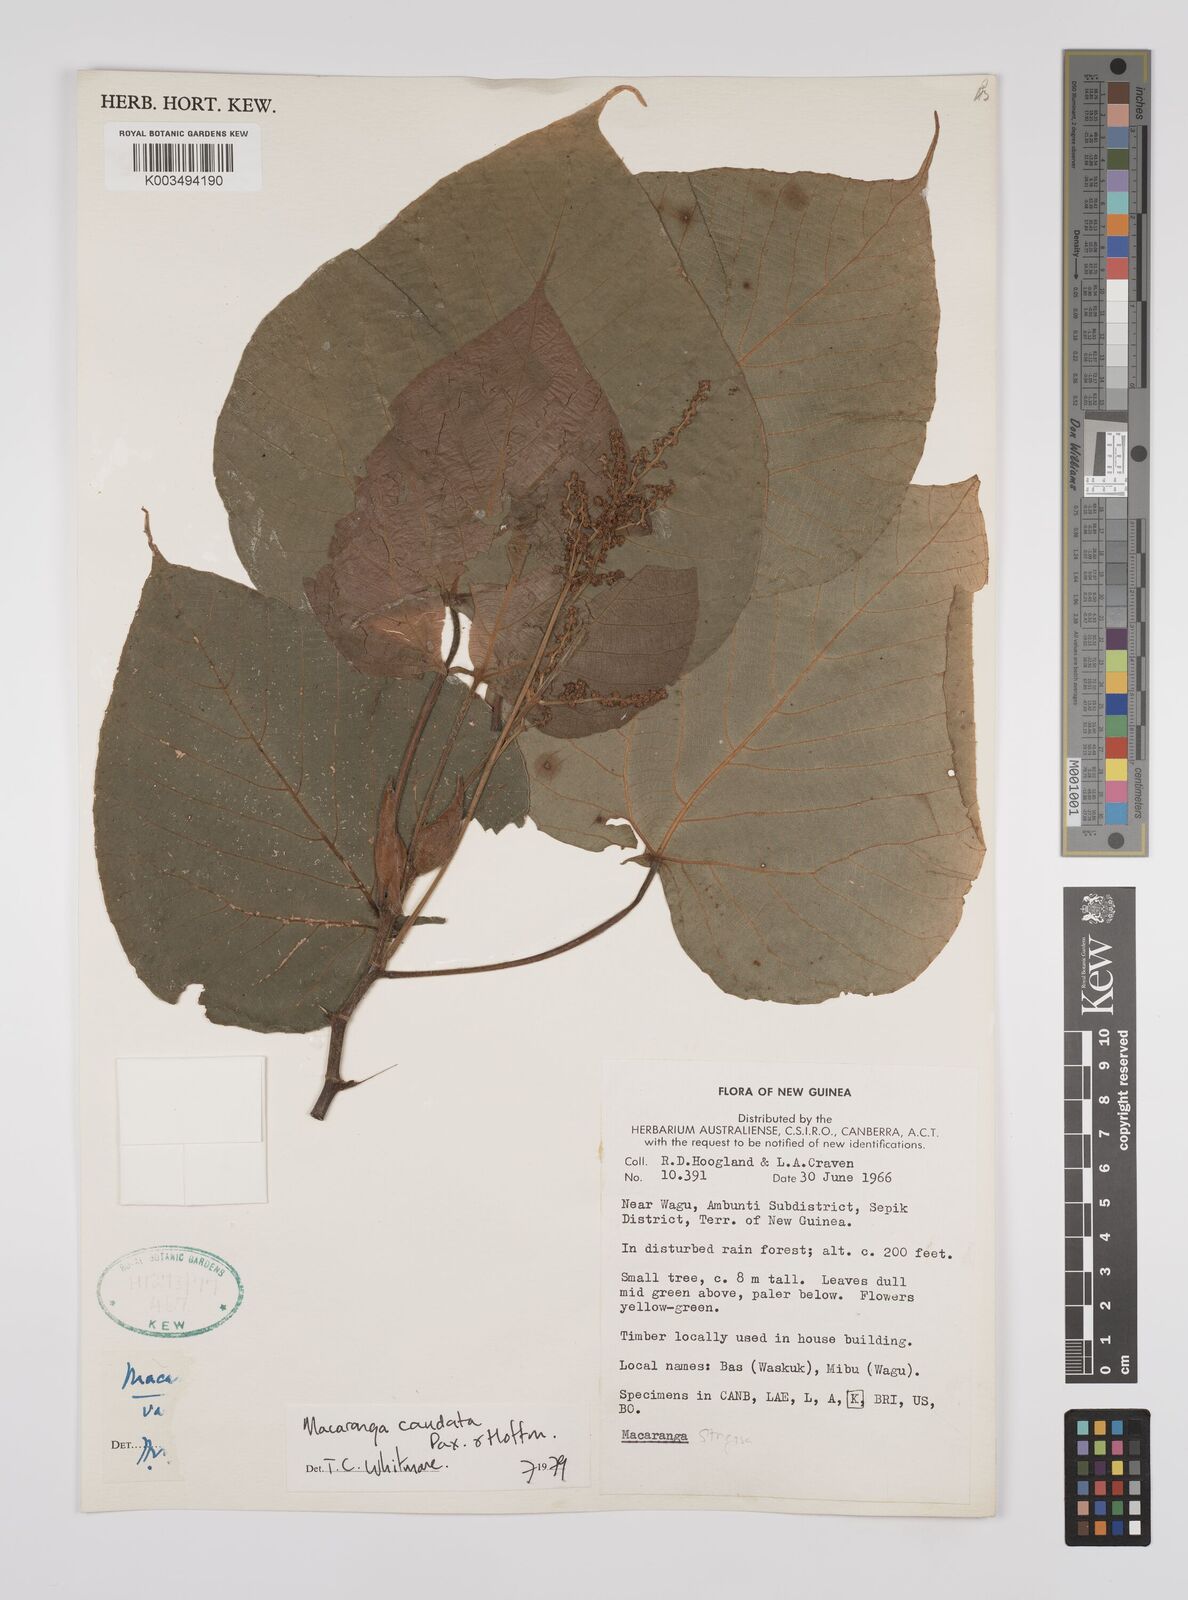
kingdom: Plantae
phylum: Tracheophyta
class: Magnoliopsida
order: Malpighiales
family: Euphorbiaceae
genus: Macaranga
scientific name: Macaranga caudata
